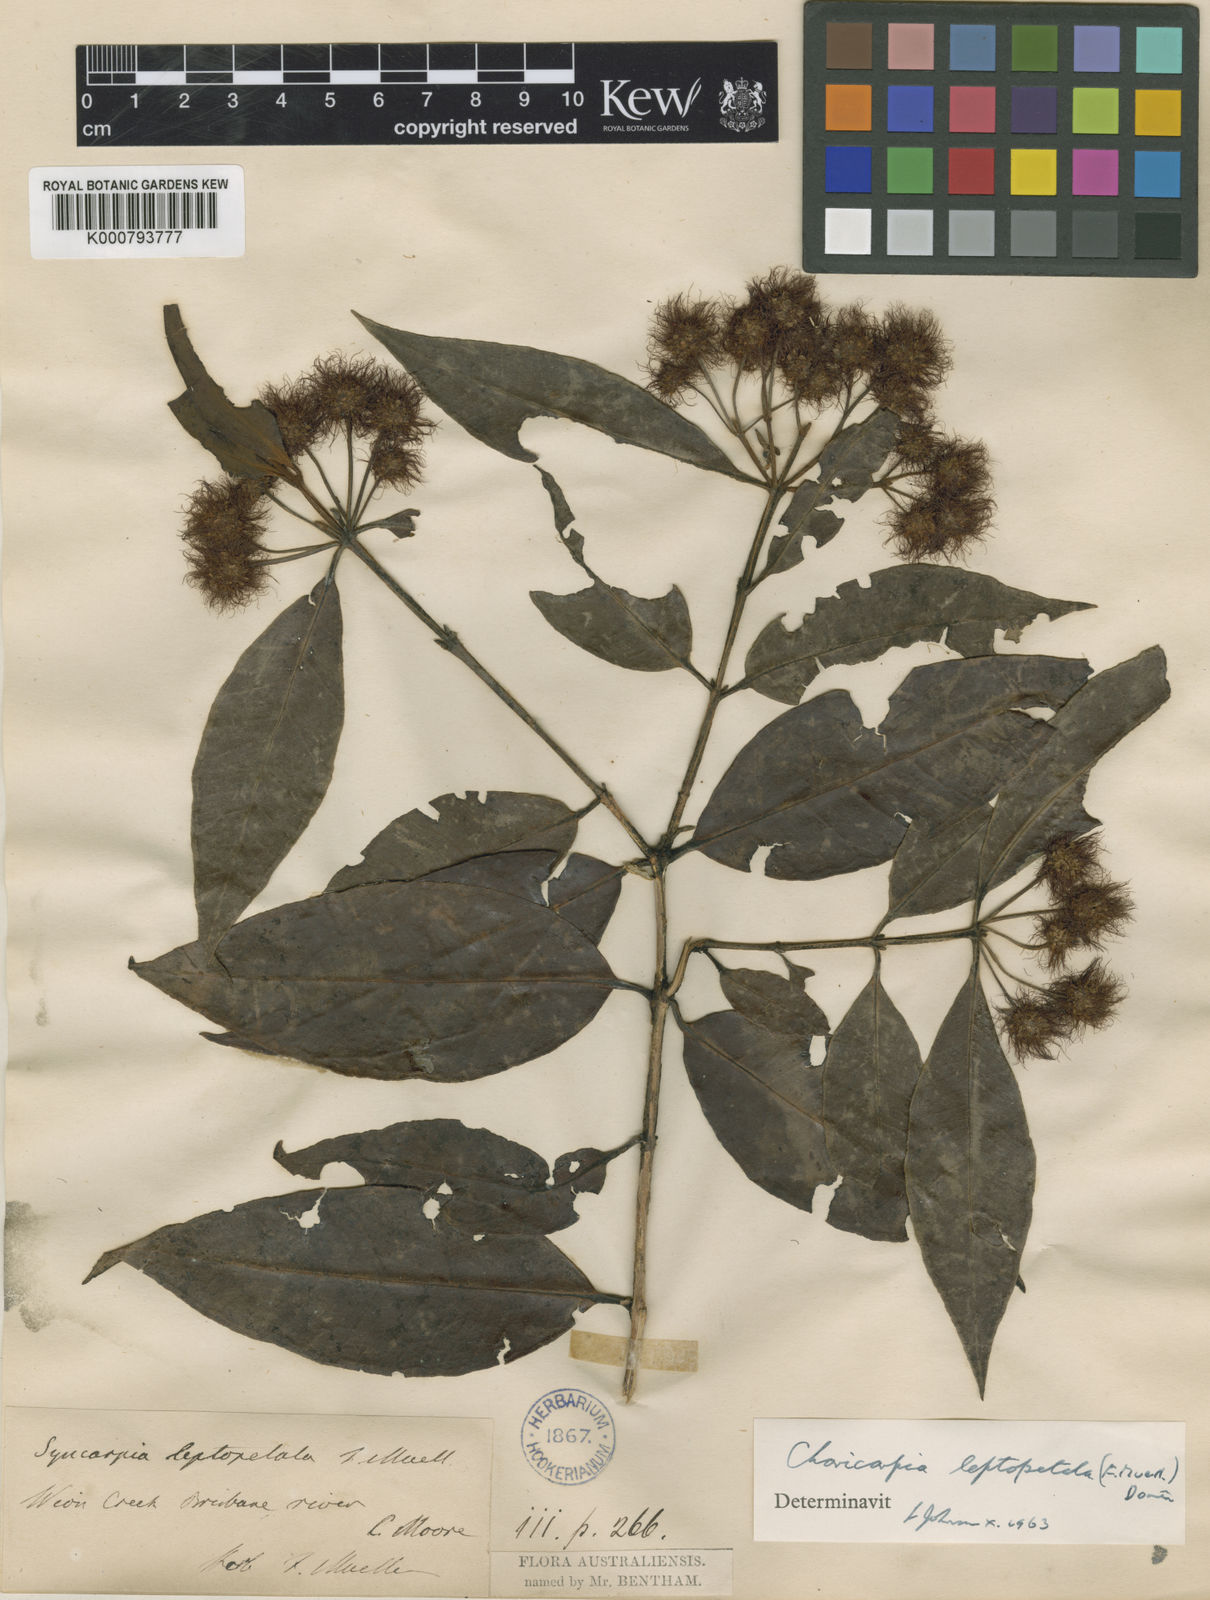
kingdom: Plantae
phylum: Tracheophyta
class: Magnoliopsida
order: Myrtales
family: Myrtaceae
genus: Backhousia
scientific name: Backhousia leptopetala
